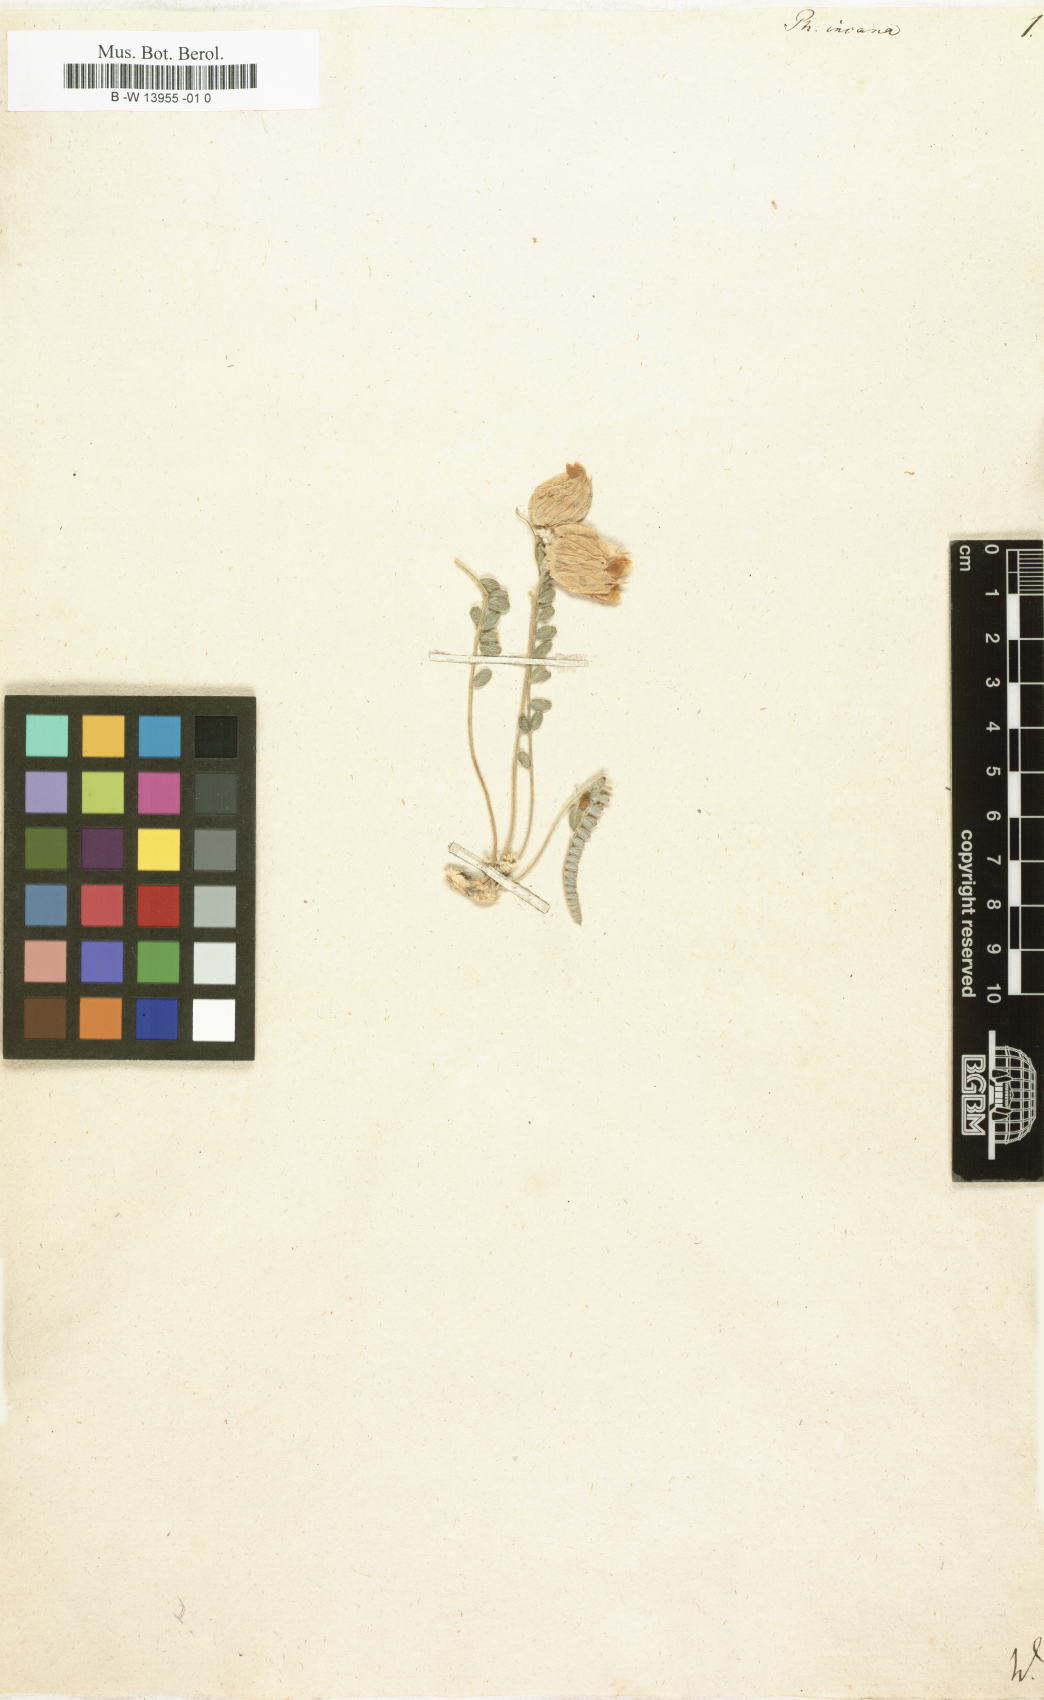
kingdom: Plantae
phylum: Tracheophyta
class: Magnoliopsida
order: Fabales
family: Fabaceae
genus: Astragalus
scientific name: Astragalus anthylloides
